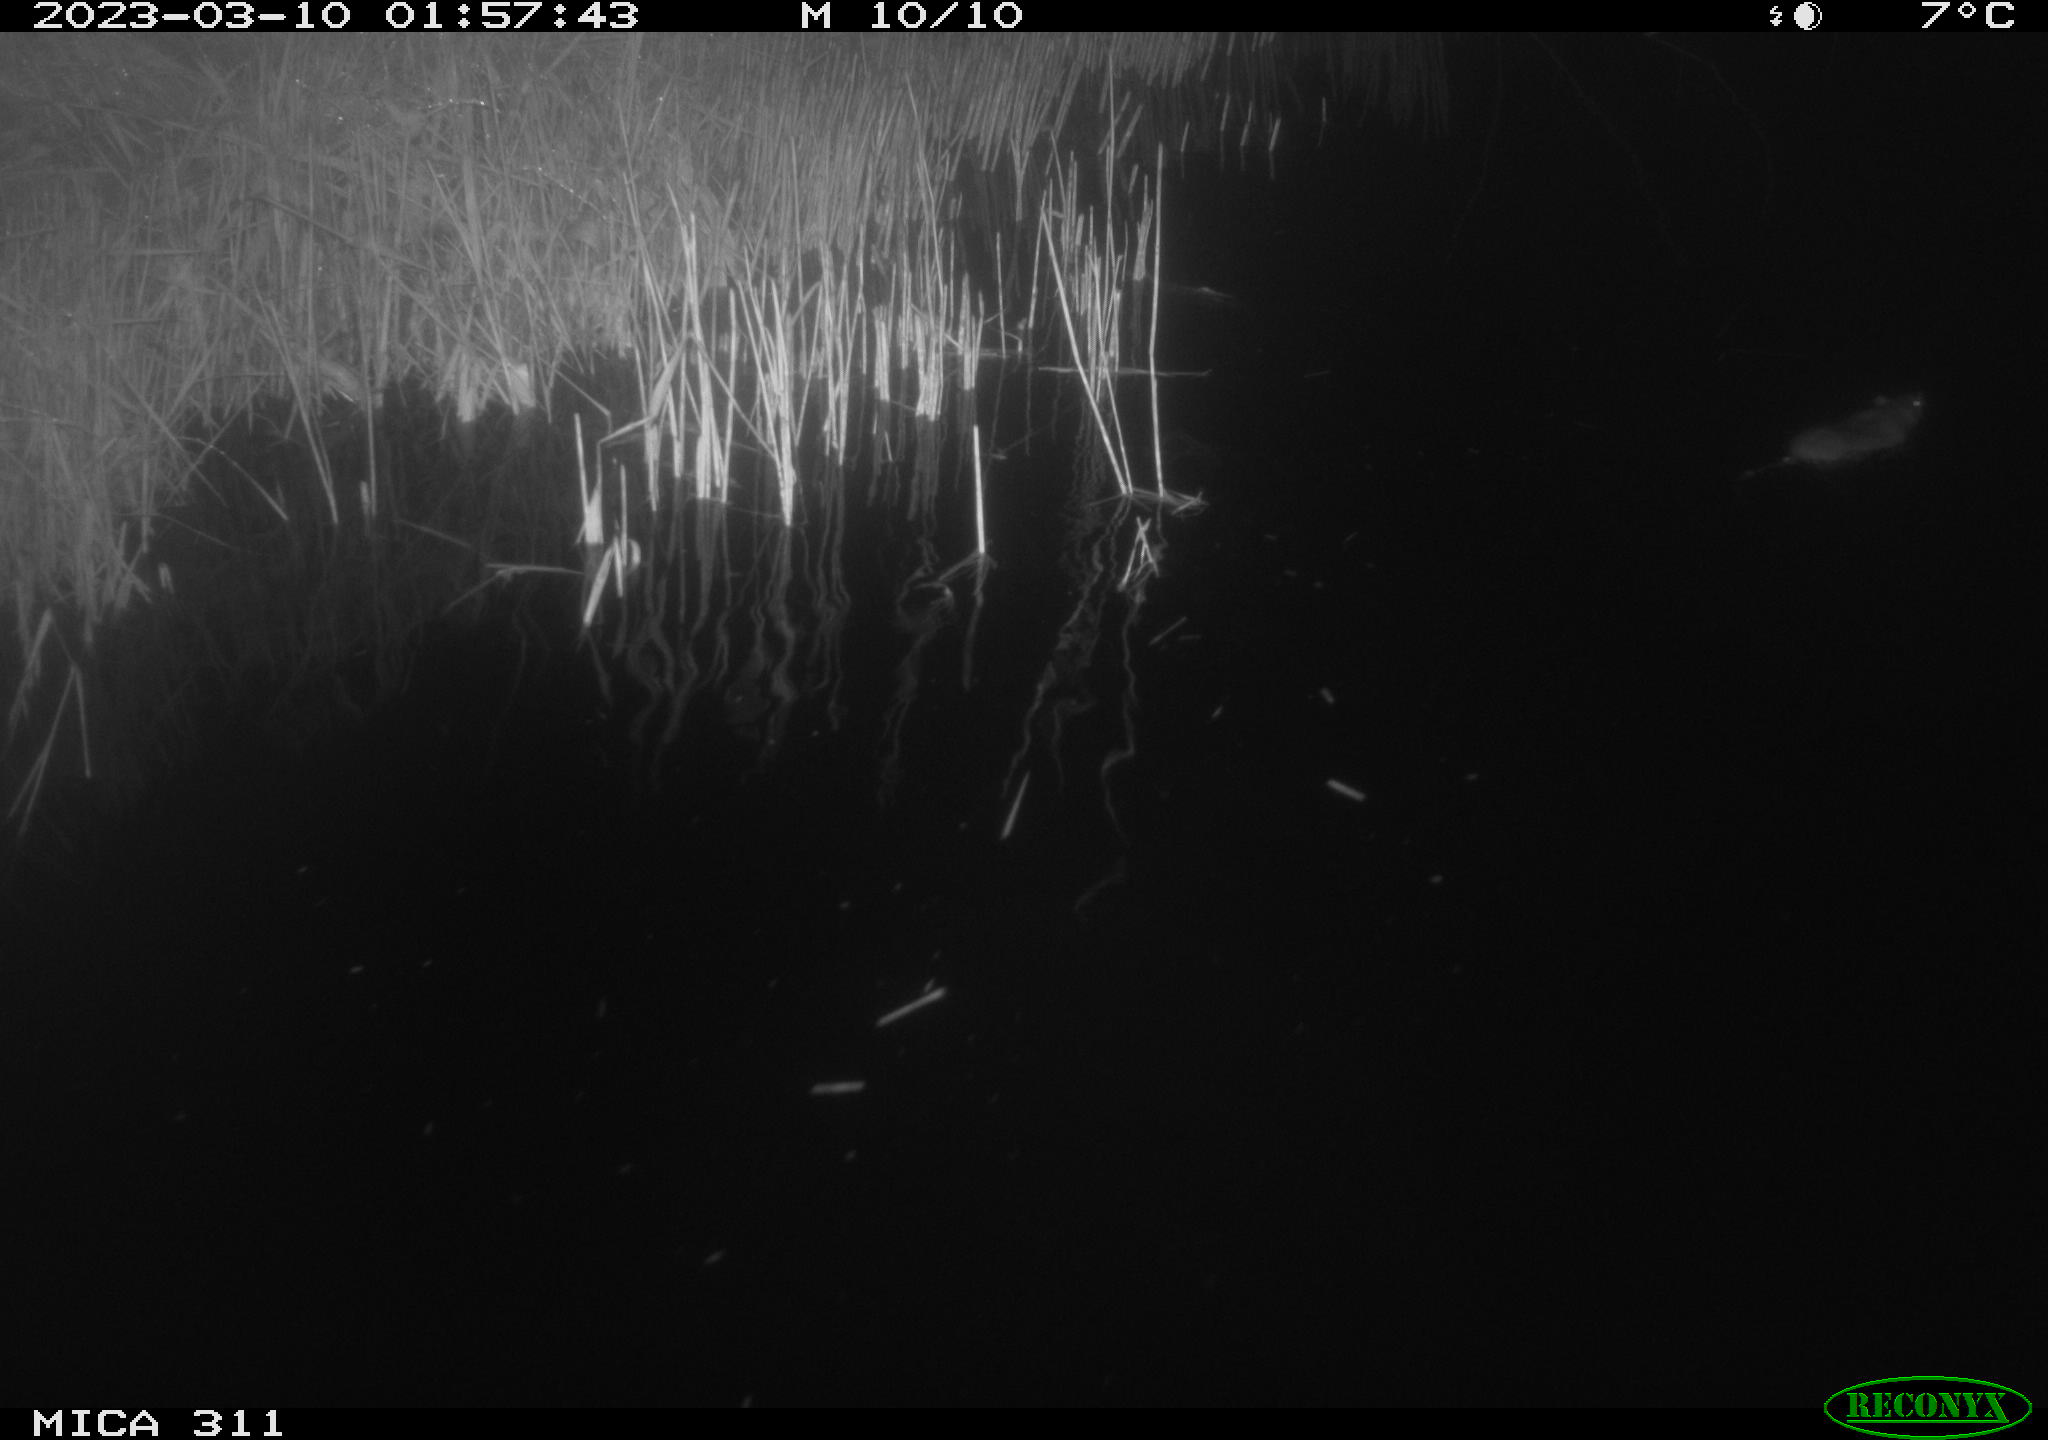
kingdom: Animalia
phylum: Chordata
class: Mammalia
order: Rodentia
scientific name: Rodentia
